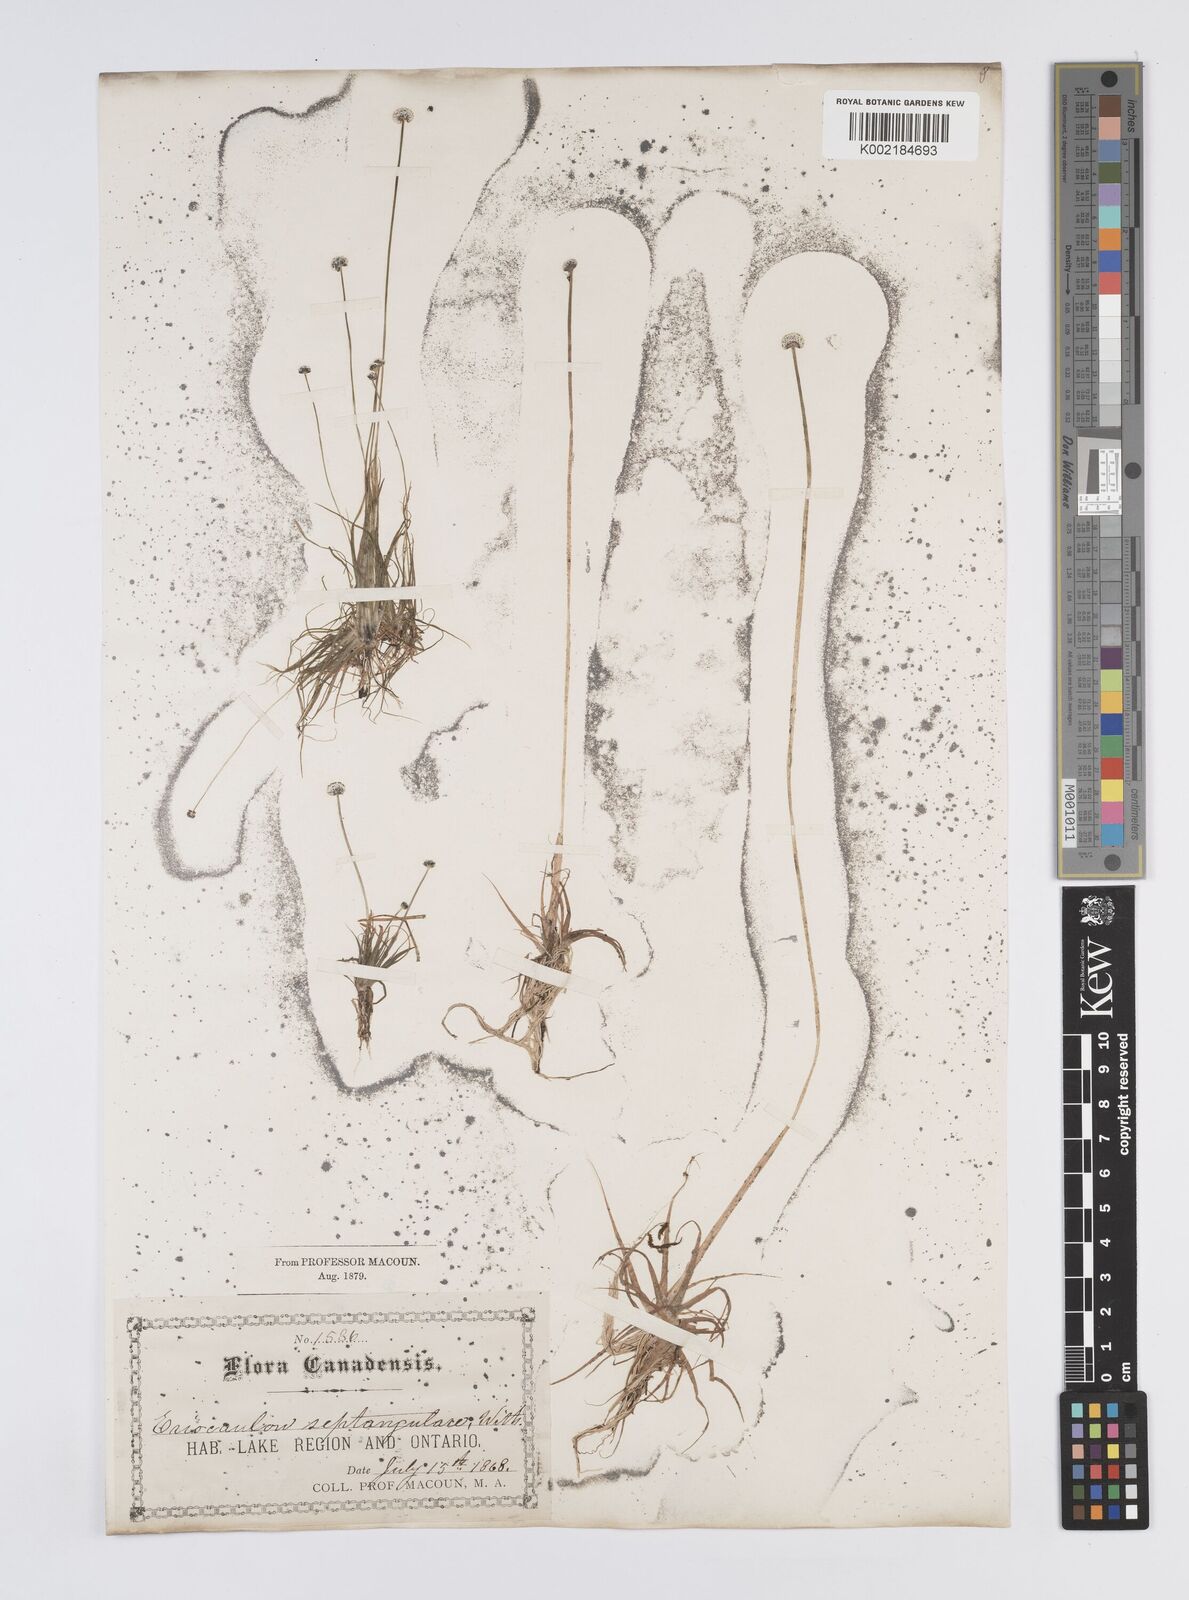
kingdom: Plantae
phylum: Tracheophyta
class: Liliopsida
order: Poales
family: Eriocaulaceae
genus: Eriocaulon
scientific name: Eriocaulon aquaticum
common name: Pipewort
